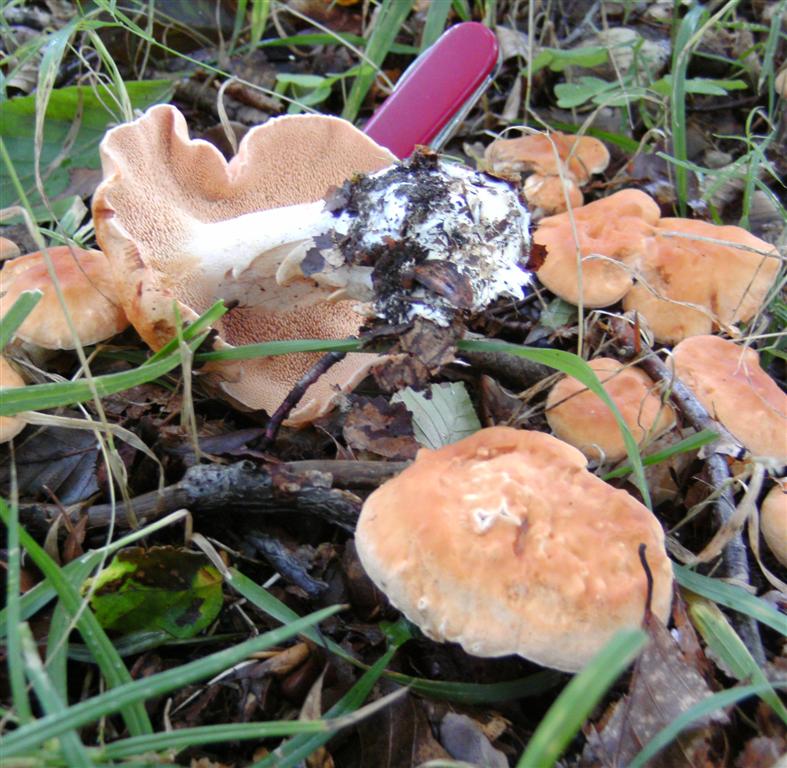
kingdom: Fungi
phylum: Basidiomycota
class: Agaricomycetes
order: Cantharellales
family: Hydnaceae
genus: Hydnum
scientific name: Hydnum rufescens
